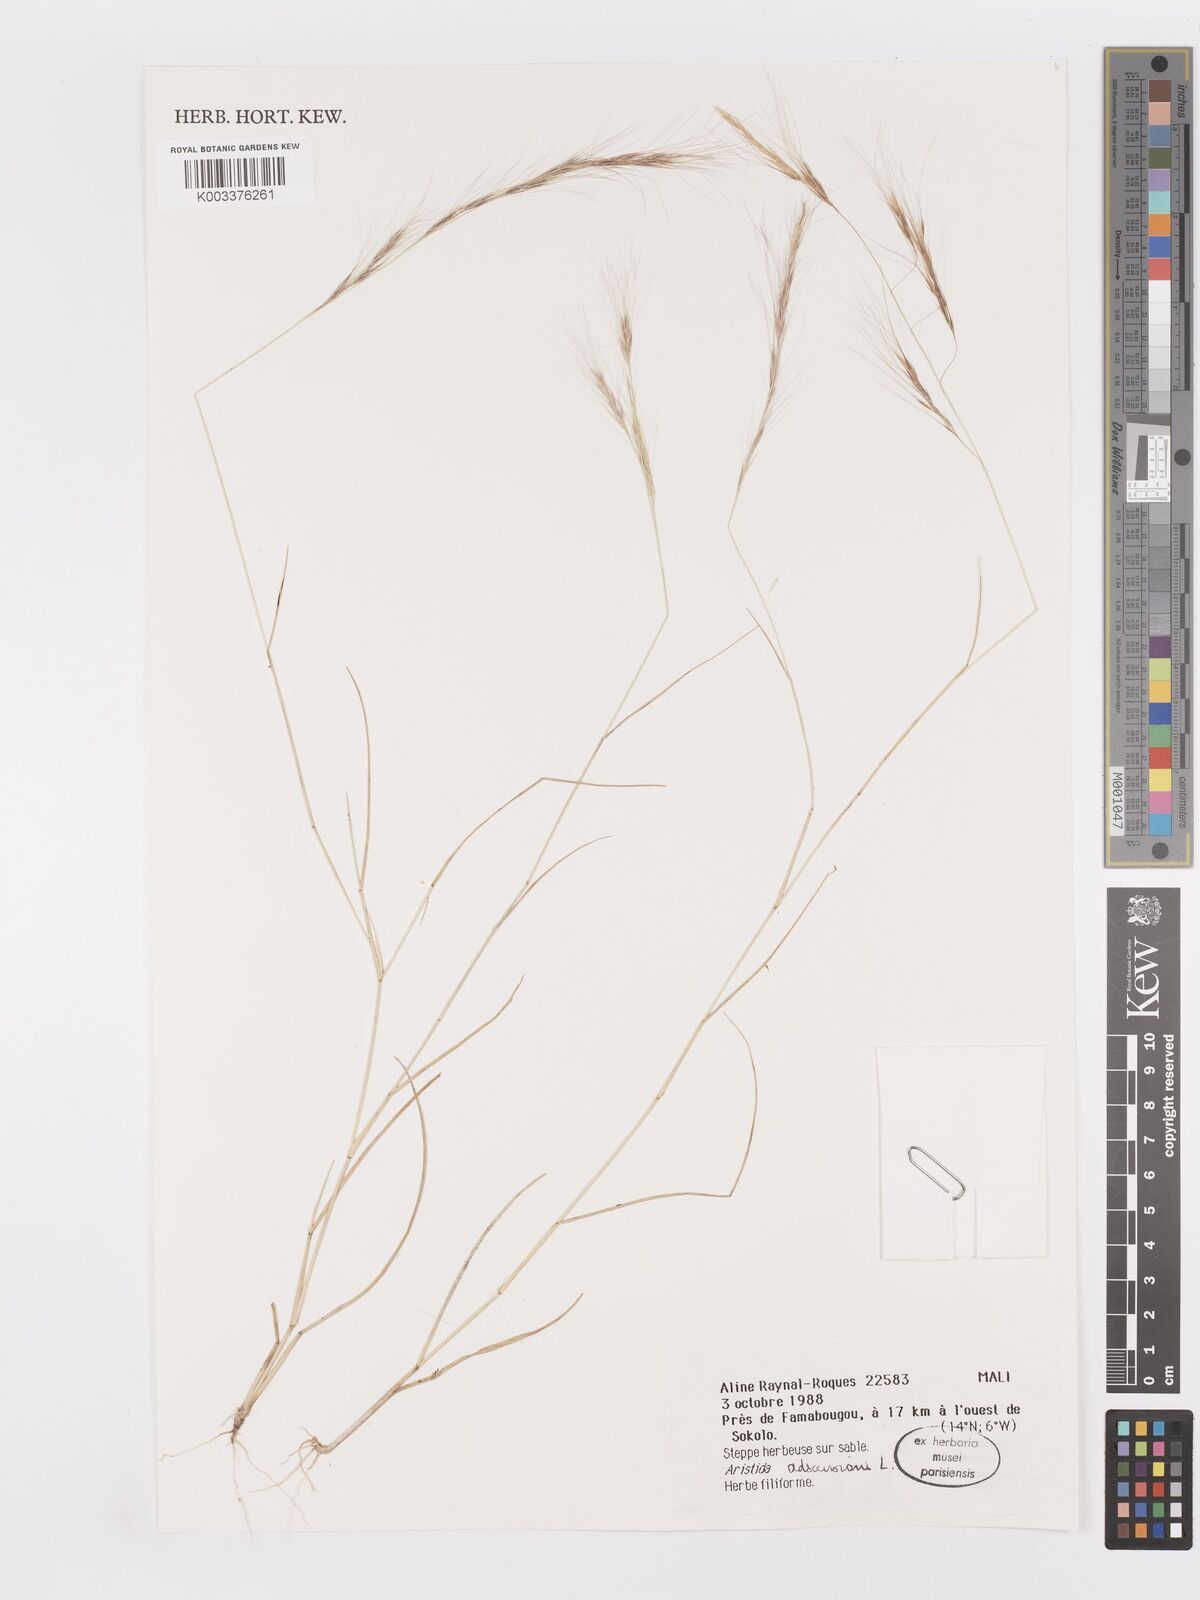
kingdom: Plantae
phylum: Tracheophyta
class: Liliopsida
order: Poales
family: Poaceae
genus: Aristida
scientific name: Aristida adscensionis
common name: Sixweeks threeawn
